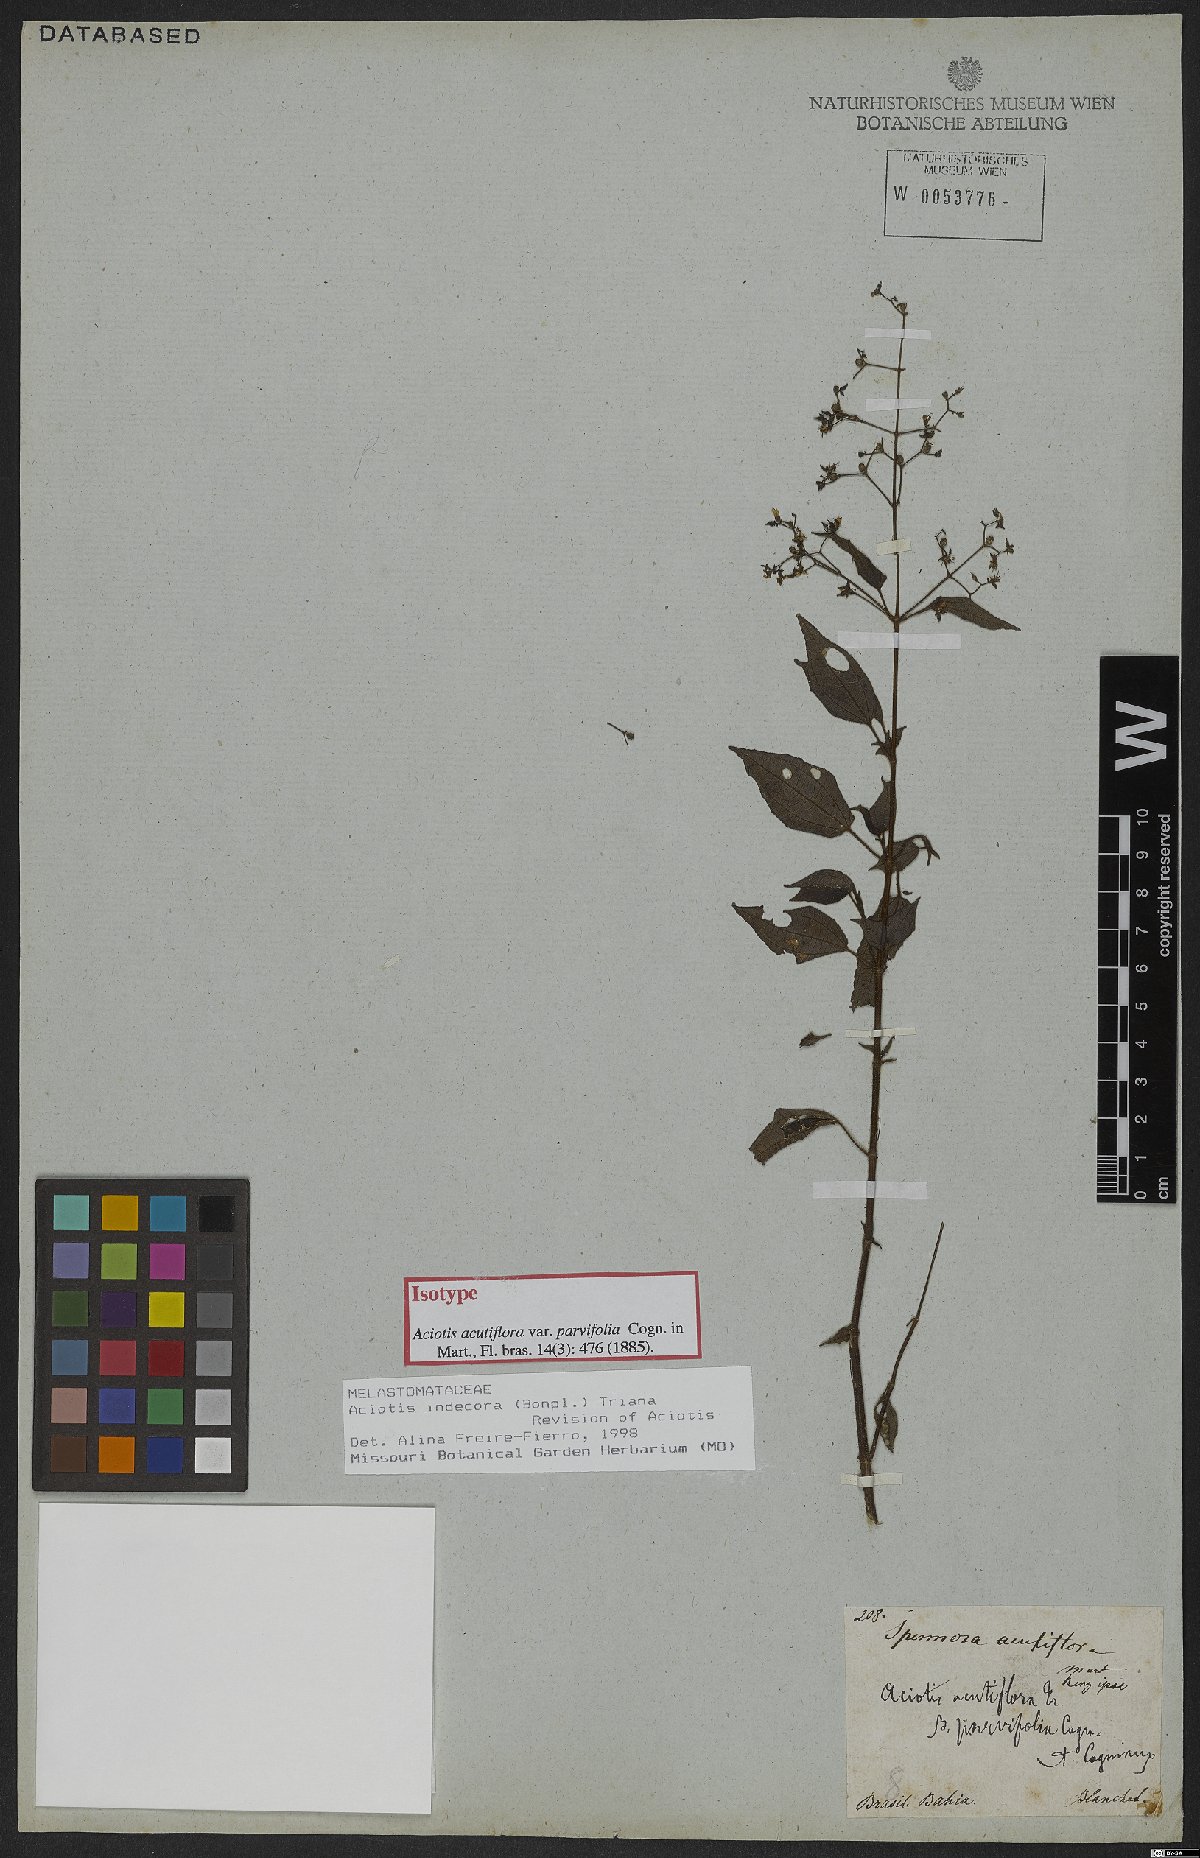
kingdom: Plantae
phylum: Tracheophyta
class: Magnoliopsida
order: Myrtales
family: Melastomataceae
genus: Aciotis
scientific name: Aciotis indecora
